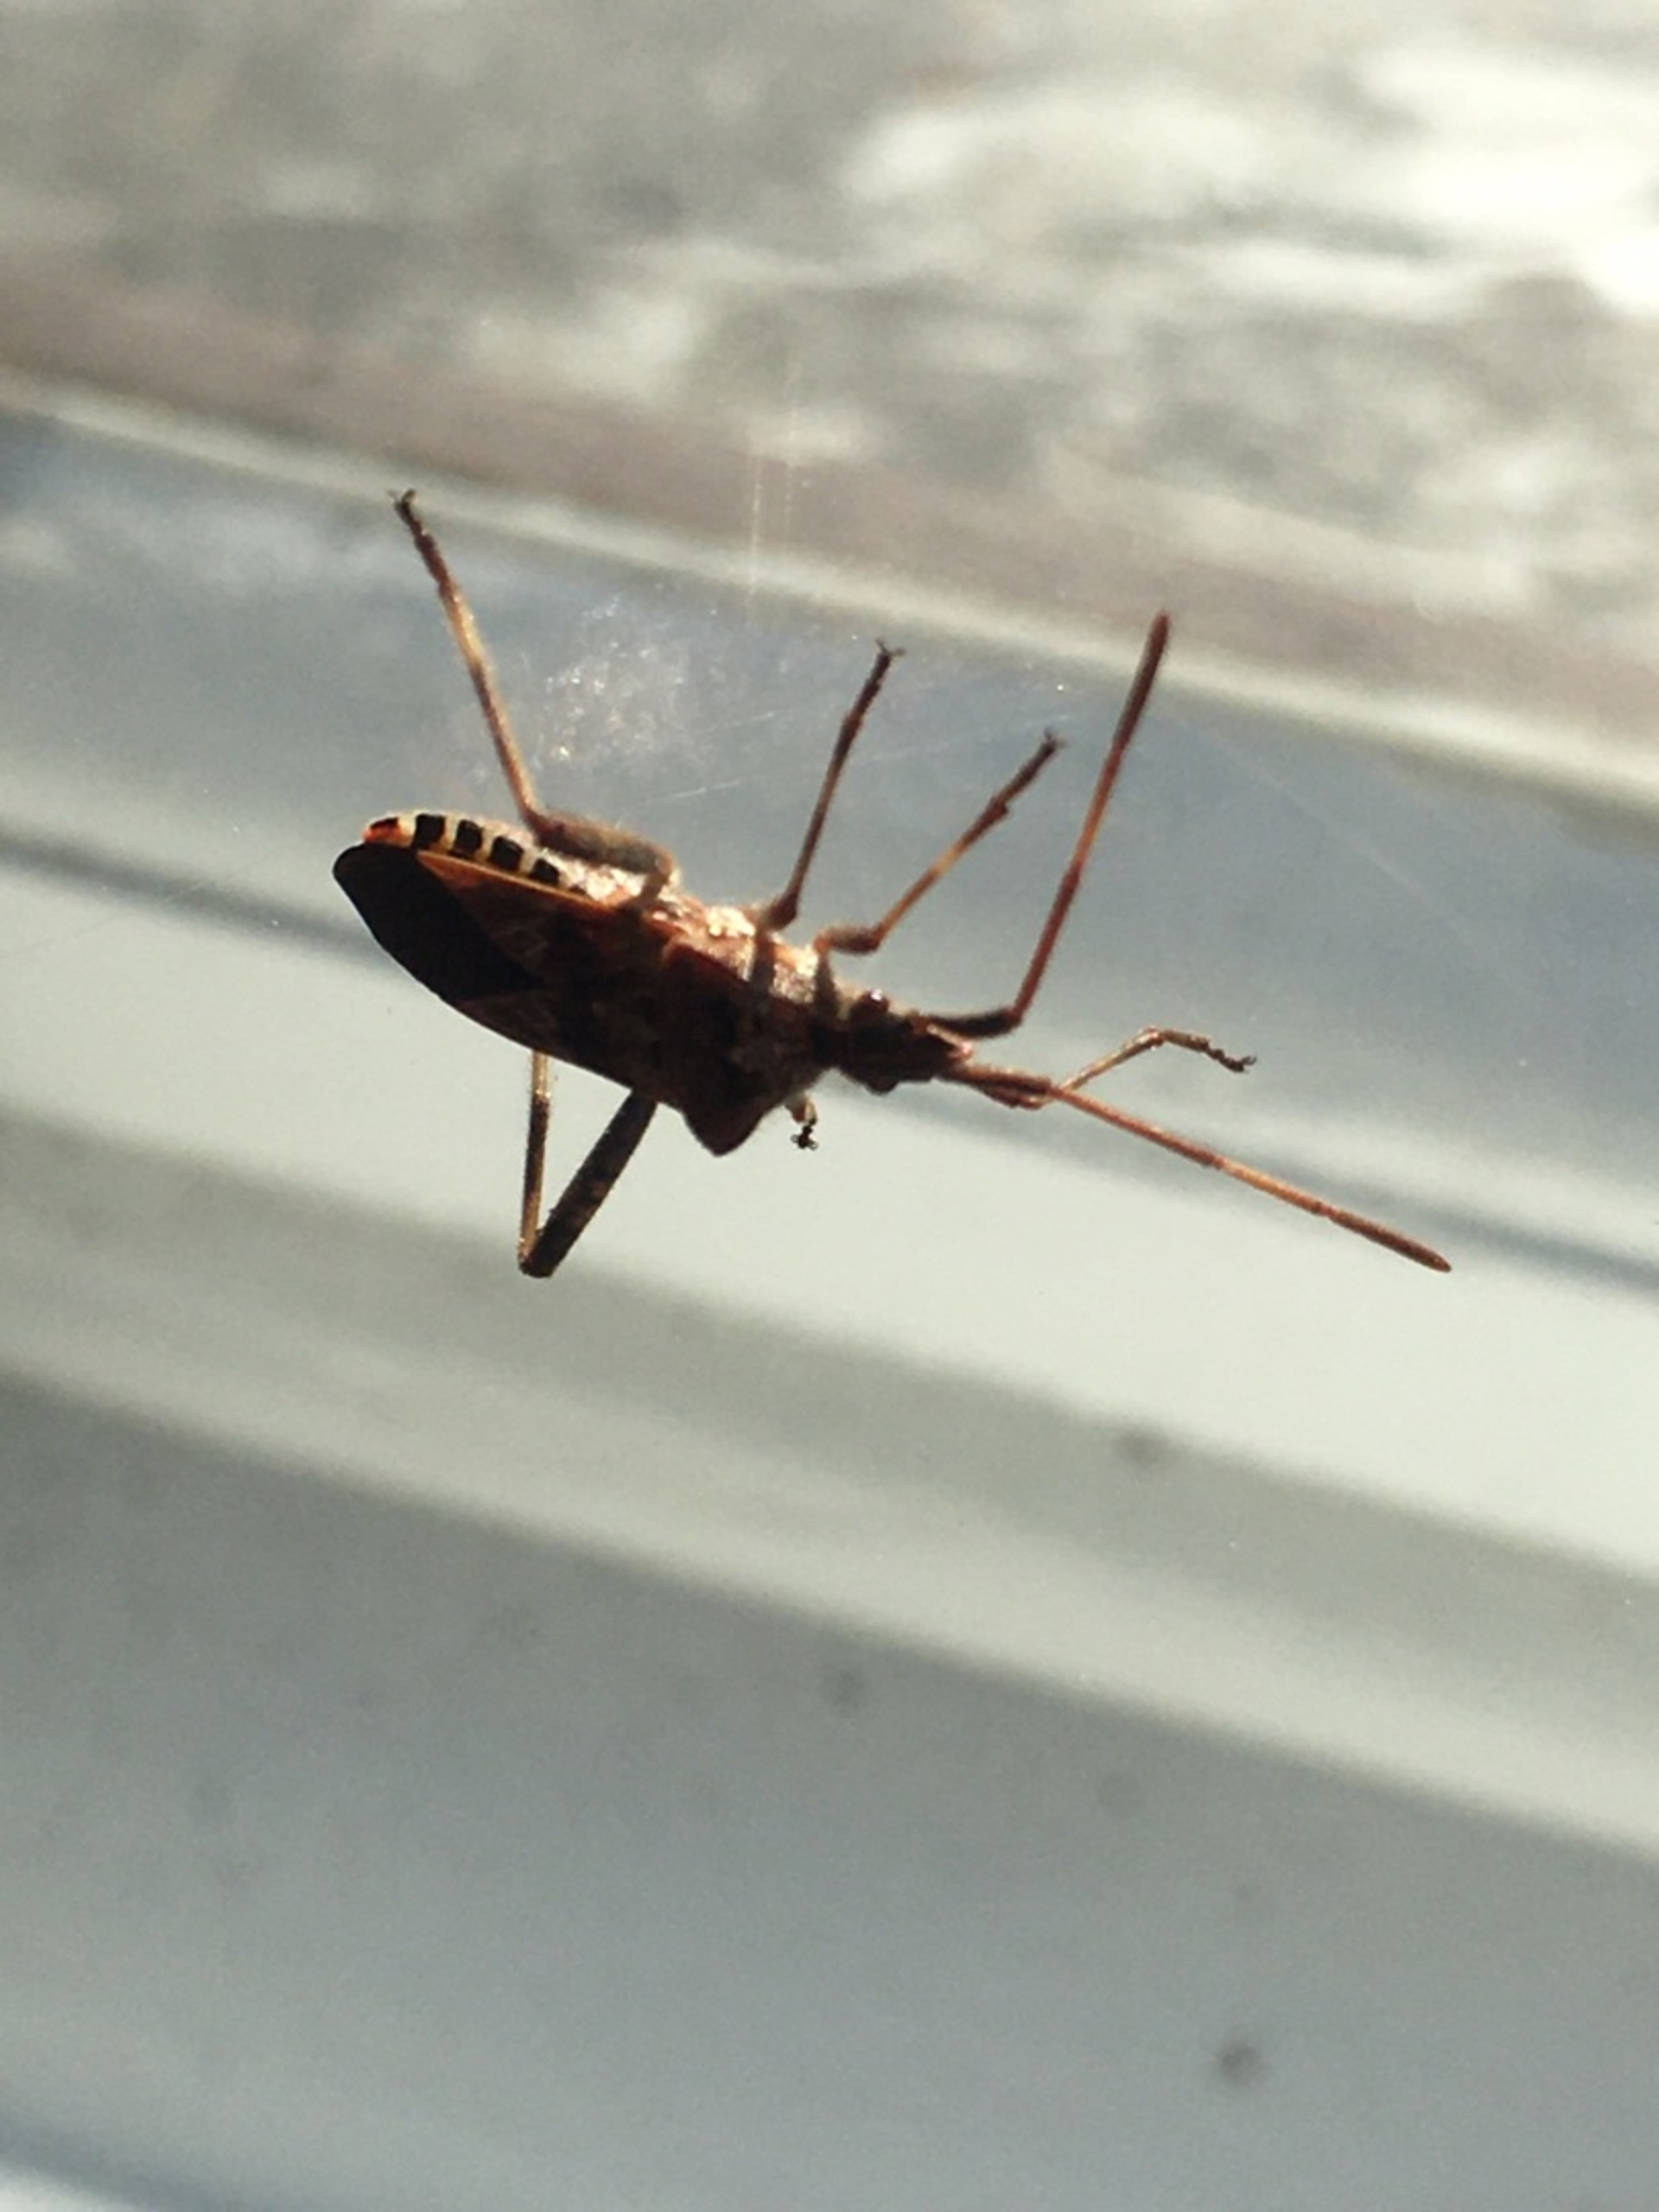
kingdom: Animalia
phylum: Arthropoda
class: Insecta
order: Hemiptera
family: Coreidae
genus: Leptoglossus
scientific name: Leptoglossus occidentalis
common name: Amerikansk fyrretæge
